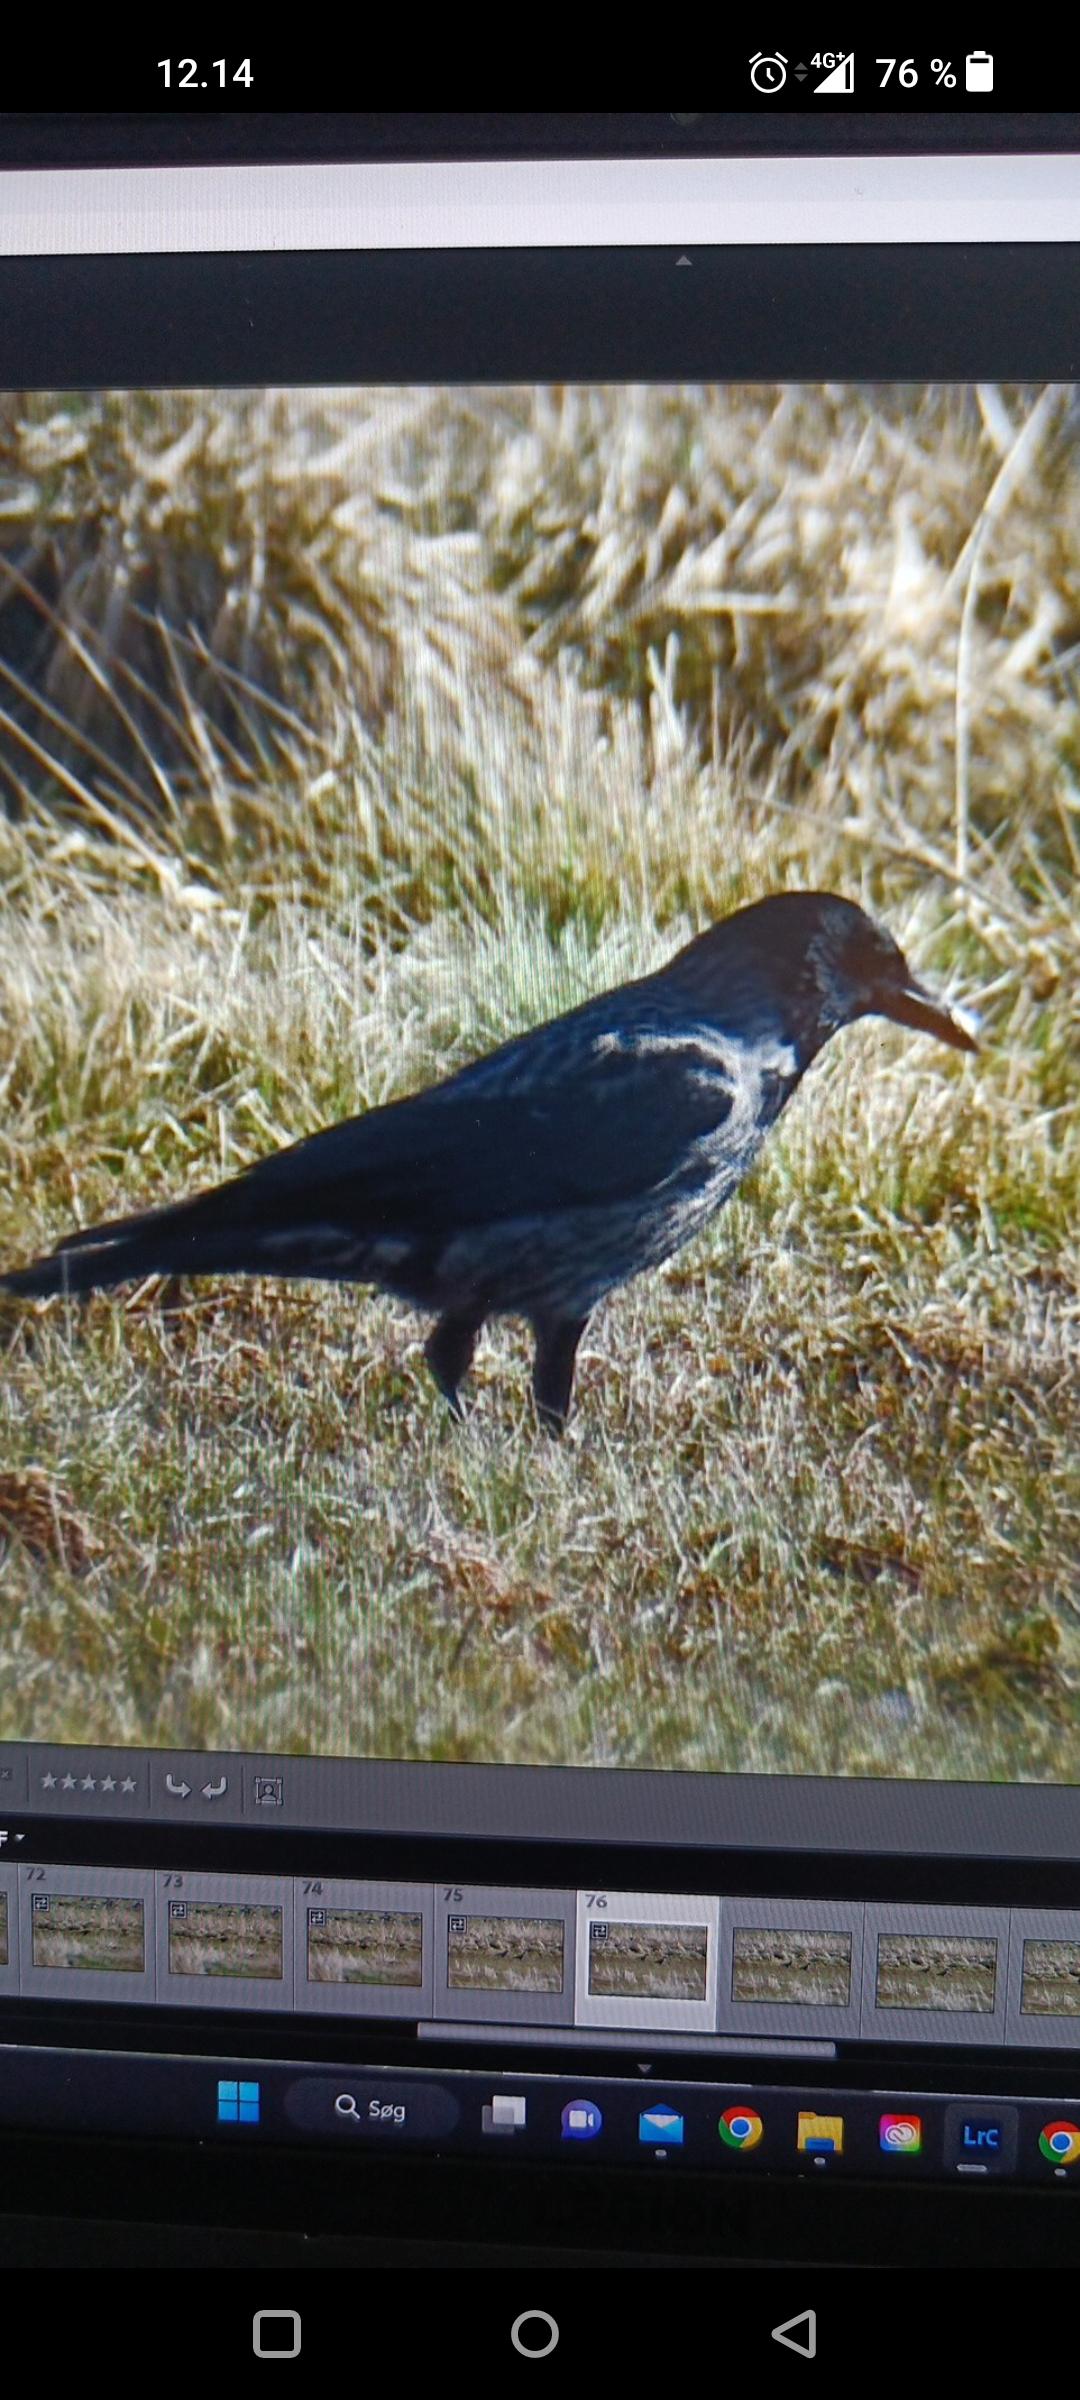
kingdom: Animalia
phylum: Chordata
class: Aves
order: Passeriformes
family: Corvidae
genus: Corvus
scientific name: Corvus
